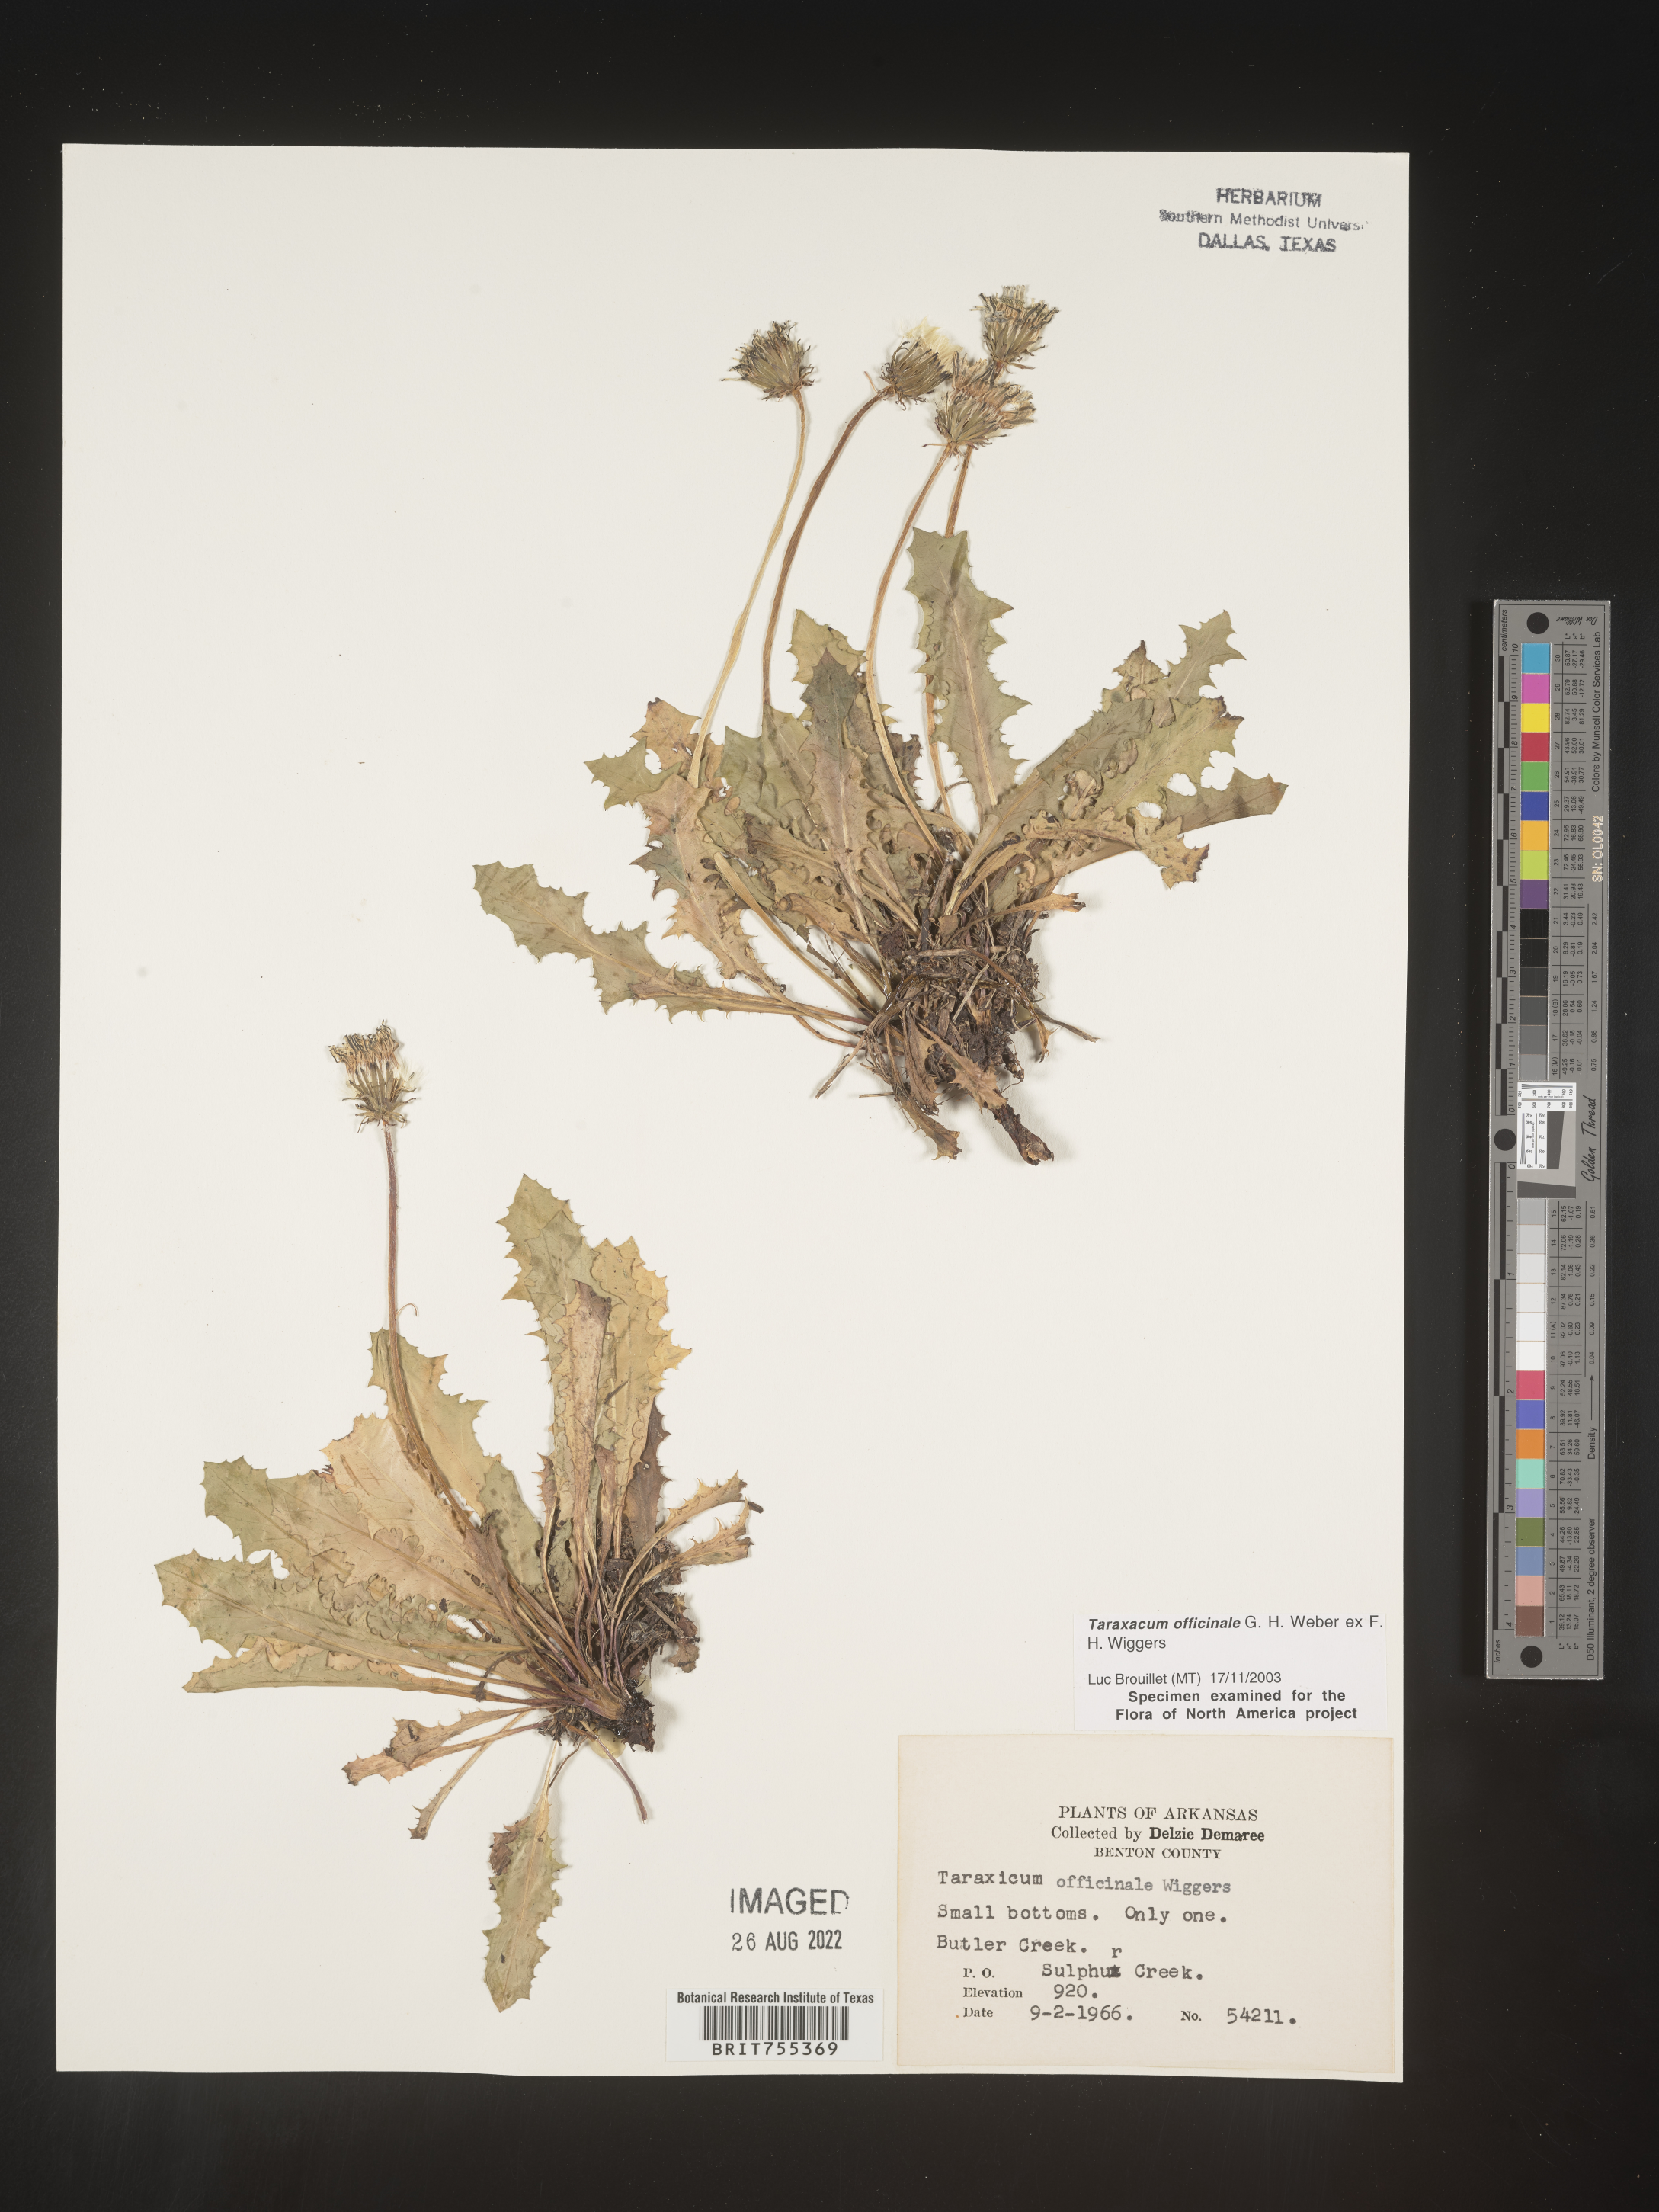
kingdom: Plantae
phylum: Tracheophyta
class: Magnoliopsida
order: Asterales
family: Asteraceae
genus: Taraxacum
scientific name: Taraxacum officinale
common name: Common dandelion
